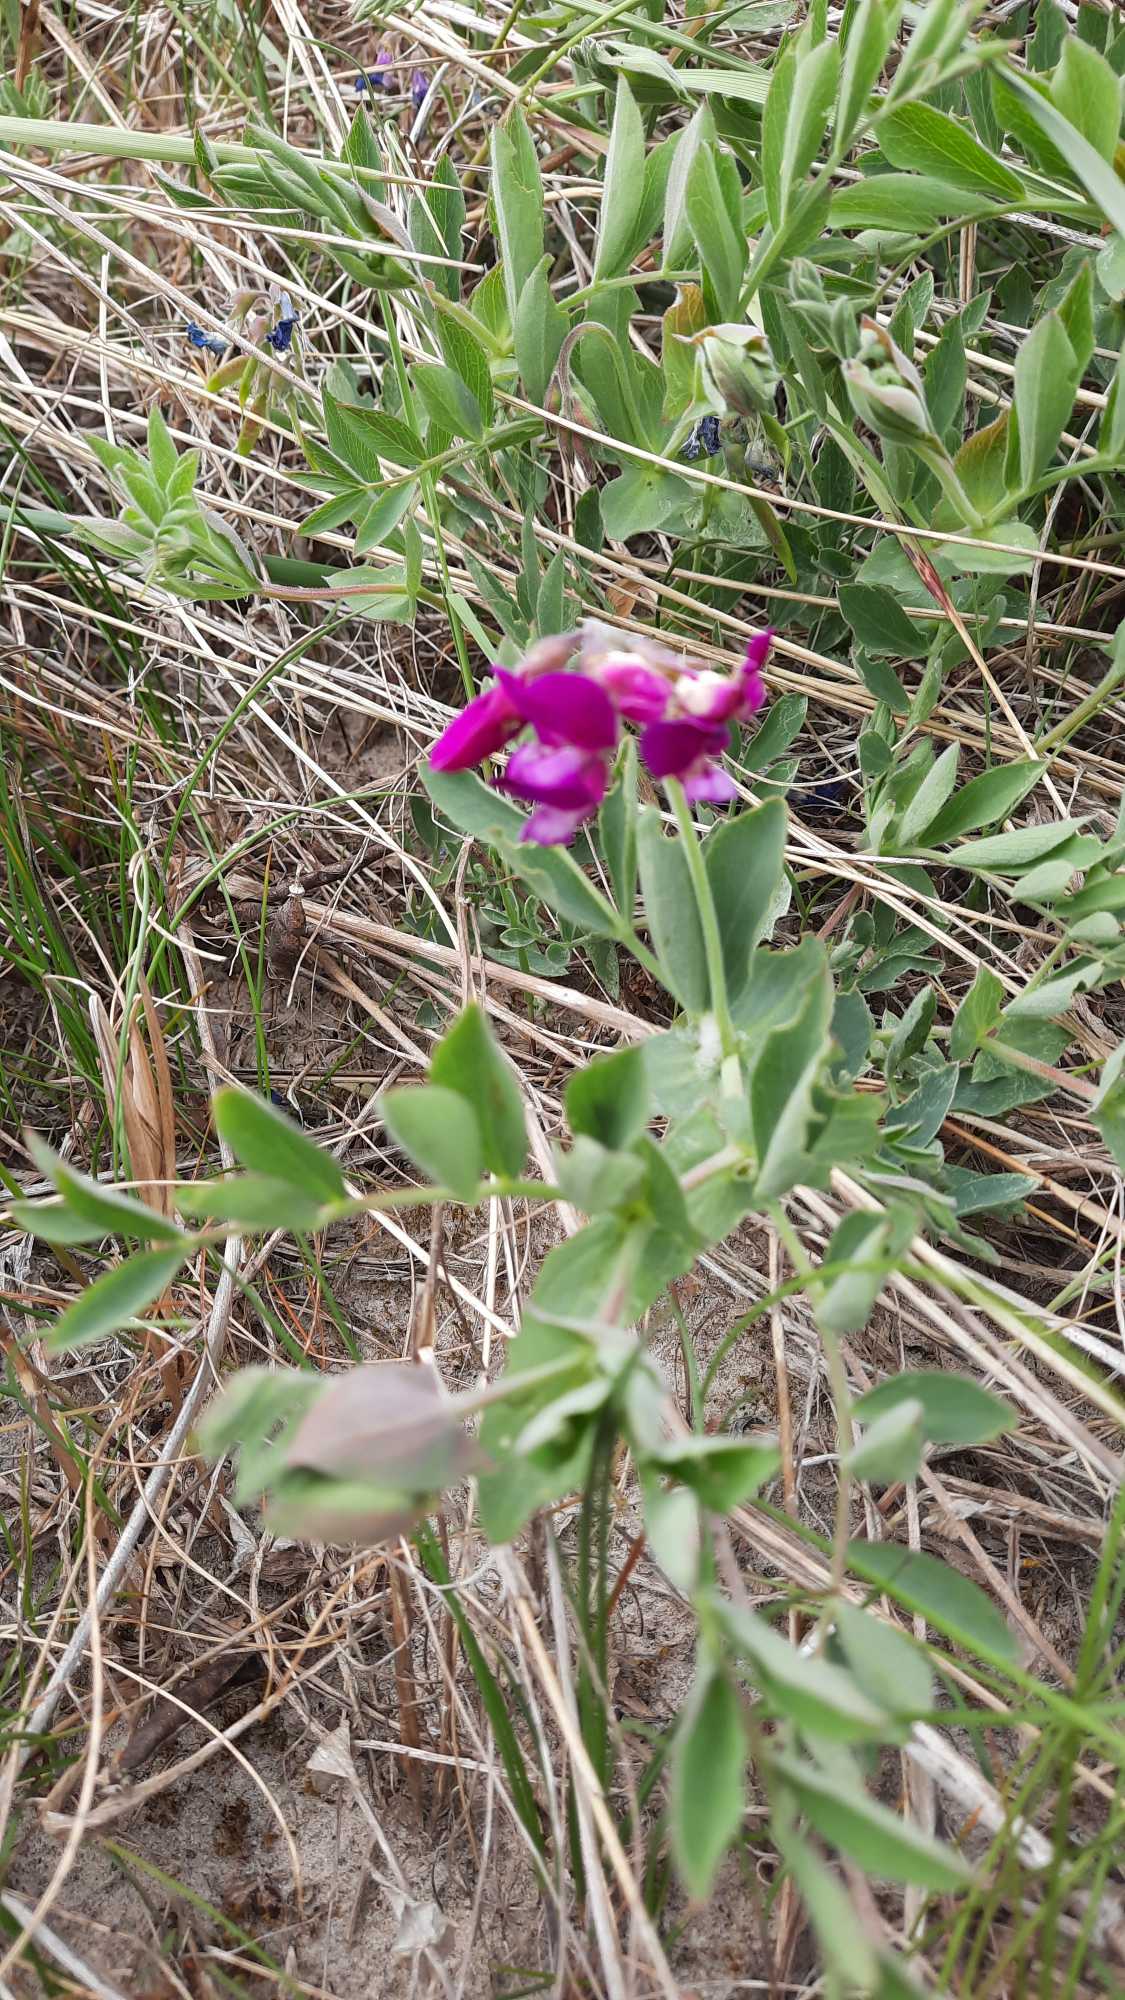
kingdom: Plantae
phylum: Tracheophyta
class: Magnoliopsida
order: Fabales
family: Fabaceae
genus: Lathyrus
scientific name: Lathyrus japonicus
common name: Klit-fladbælg
